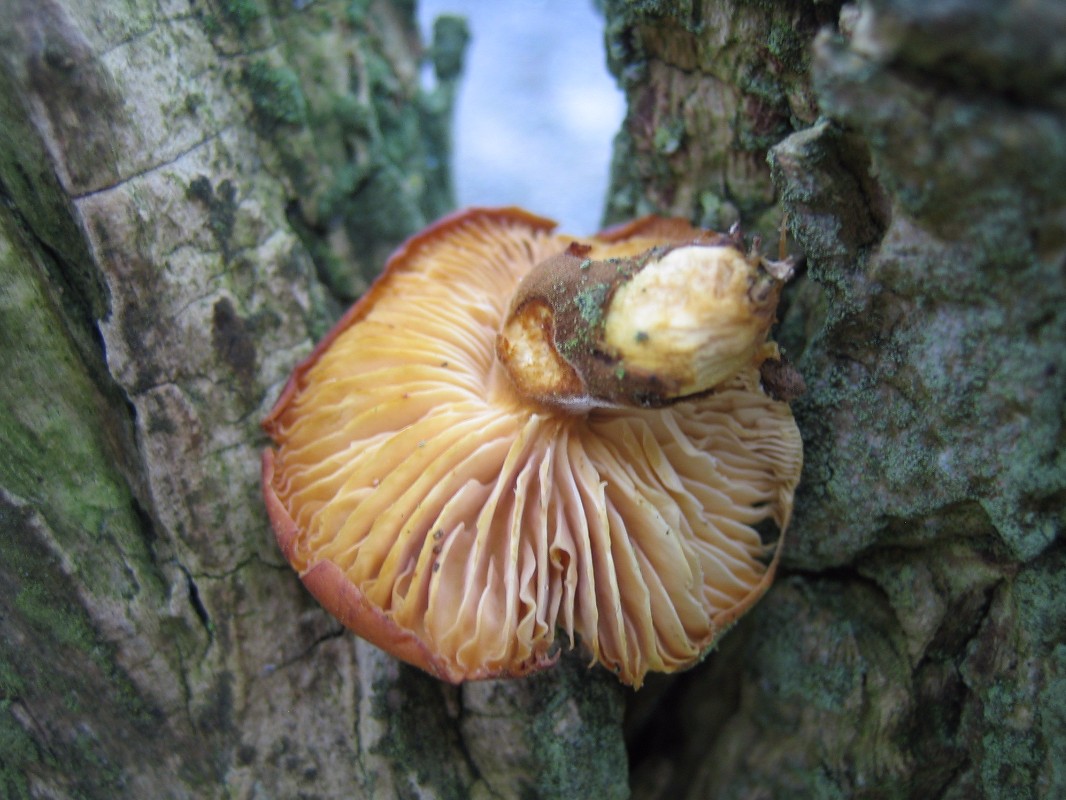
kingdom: Fungi
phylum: Basidiomycota
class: Agaricomycetes
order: Agaricales
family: Physalacriaceae
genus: Flammulina
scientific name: Flammulina velutipes
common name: gul fløjlsfod
